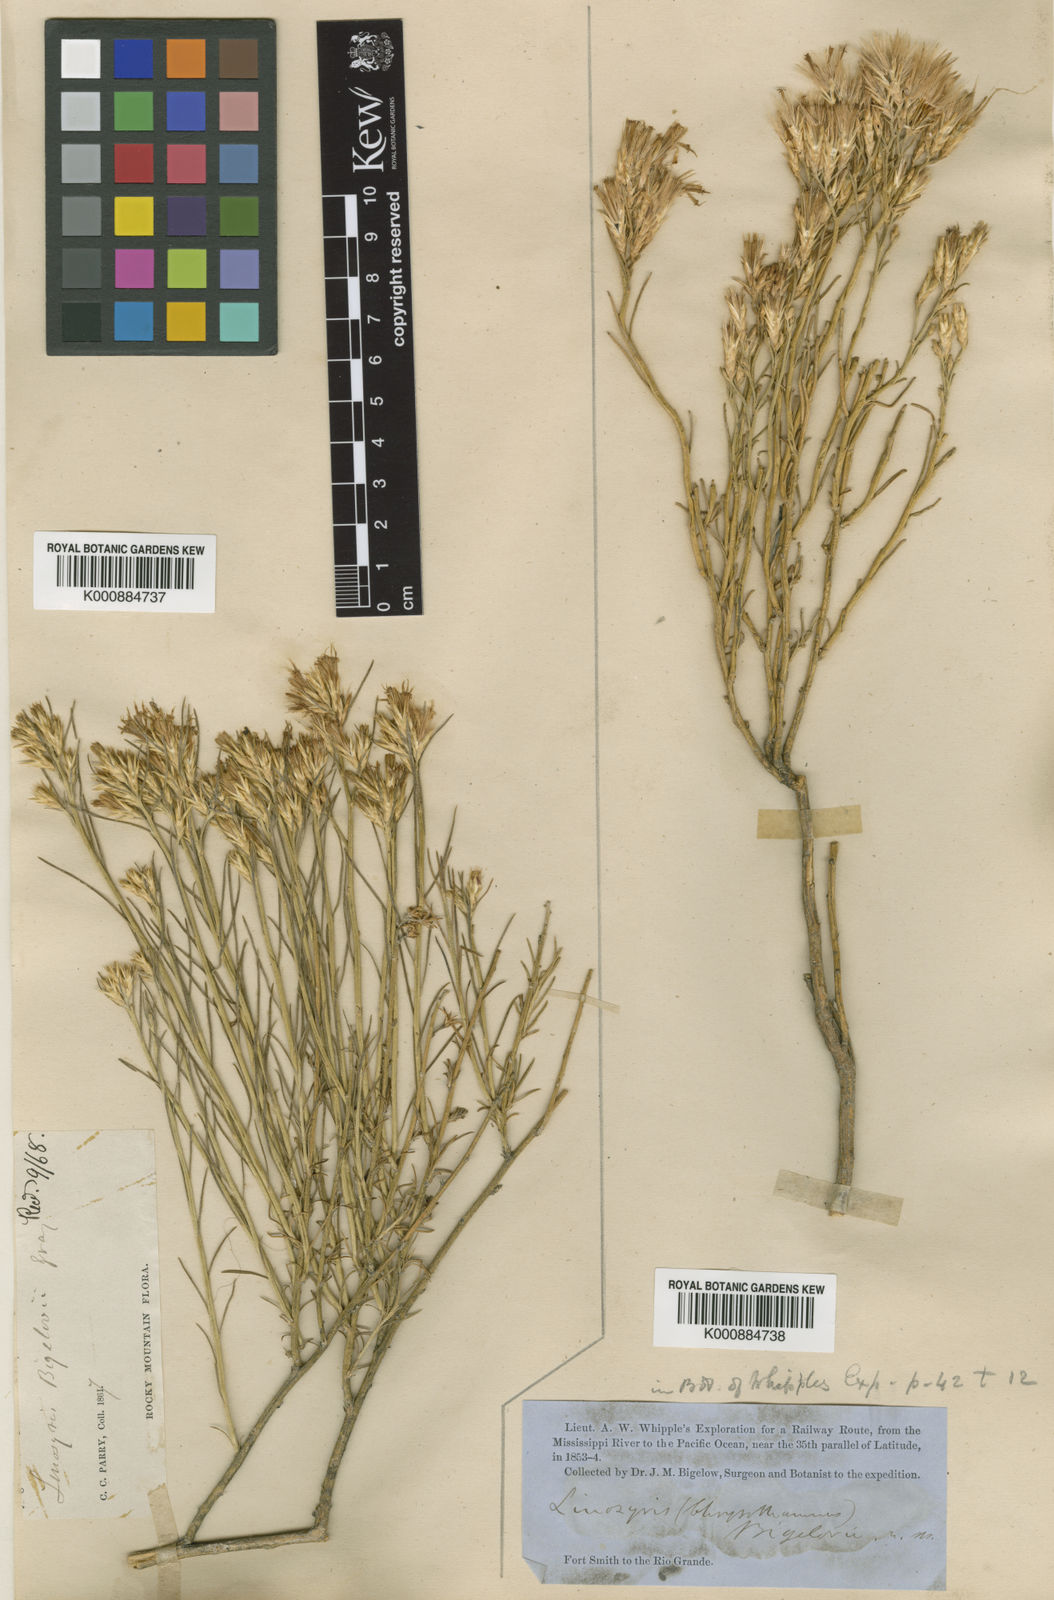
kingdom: Plantae
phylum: Tracheophyta
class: Magnoliopsida
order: Asterales
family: Asteraceae
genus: Ericameria
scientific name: Ericameria nauseosa
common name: Rubber rabbitbrush
